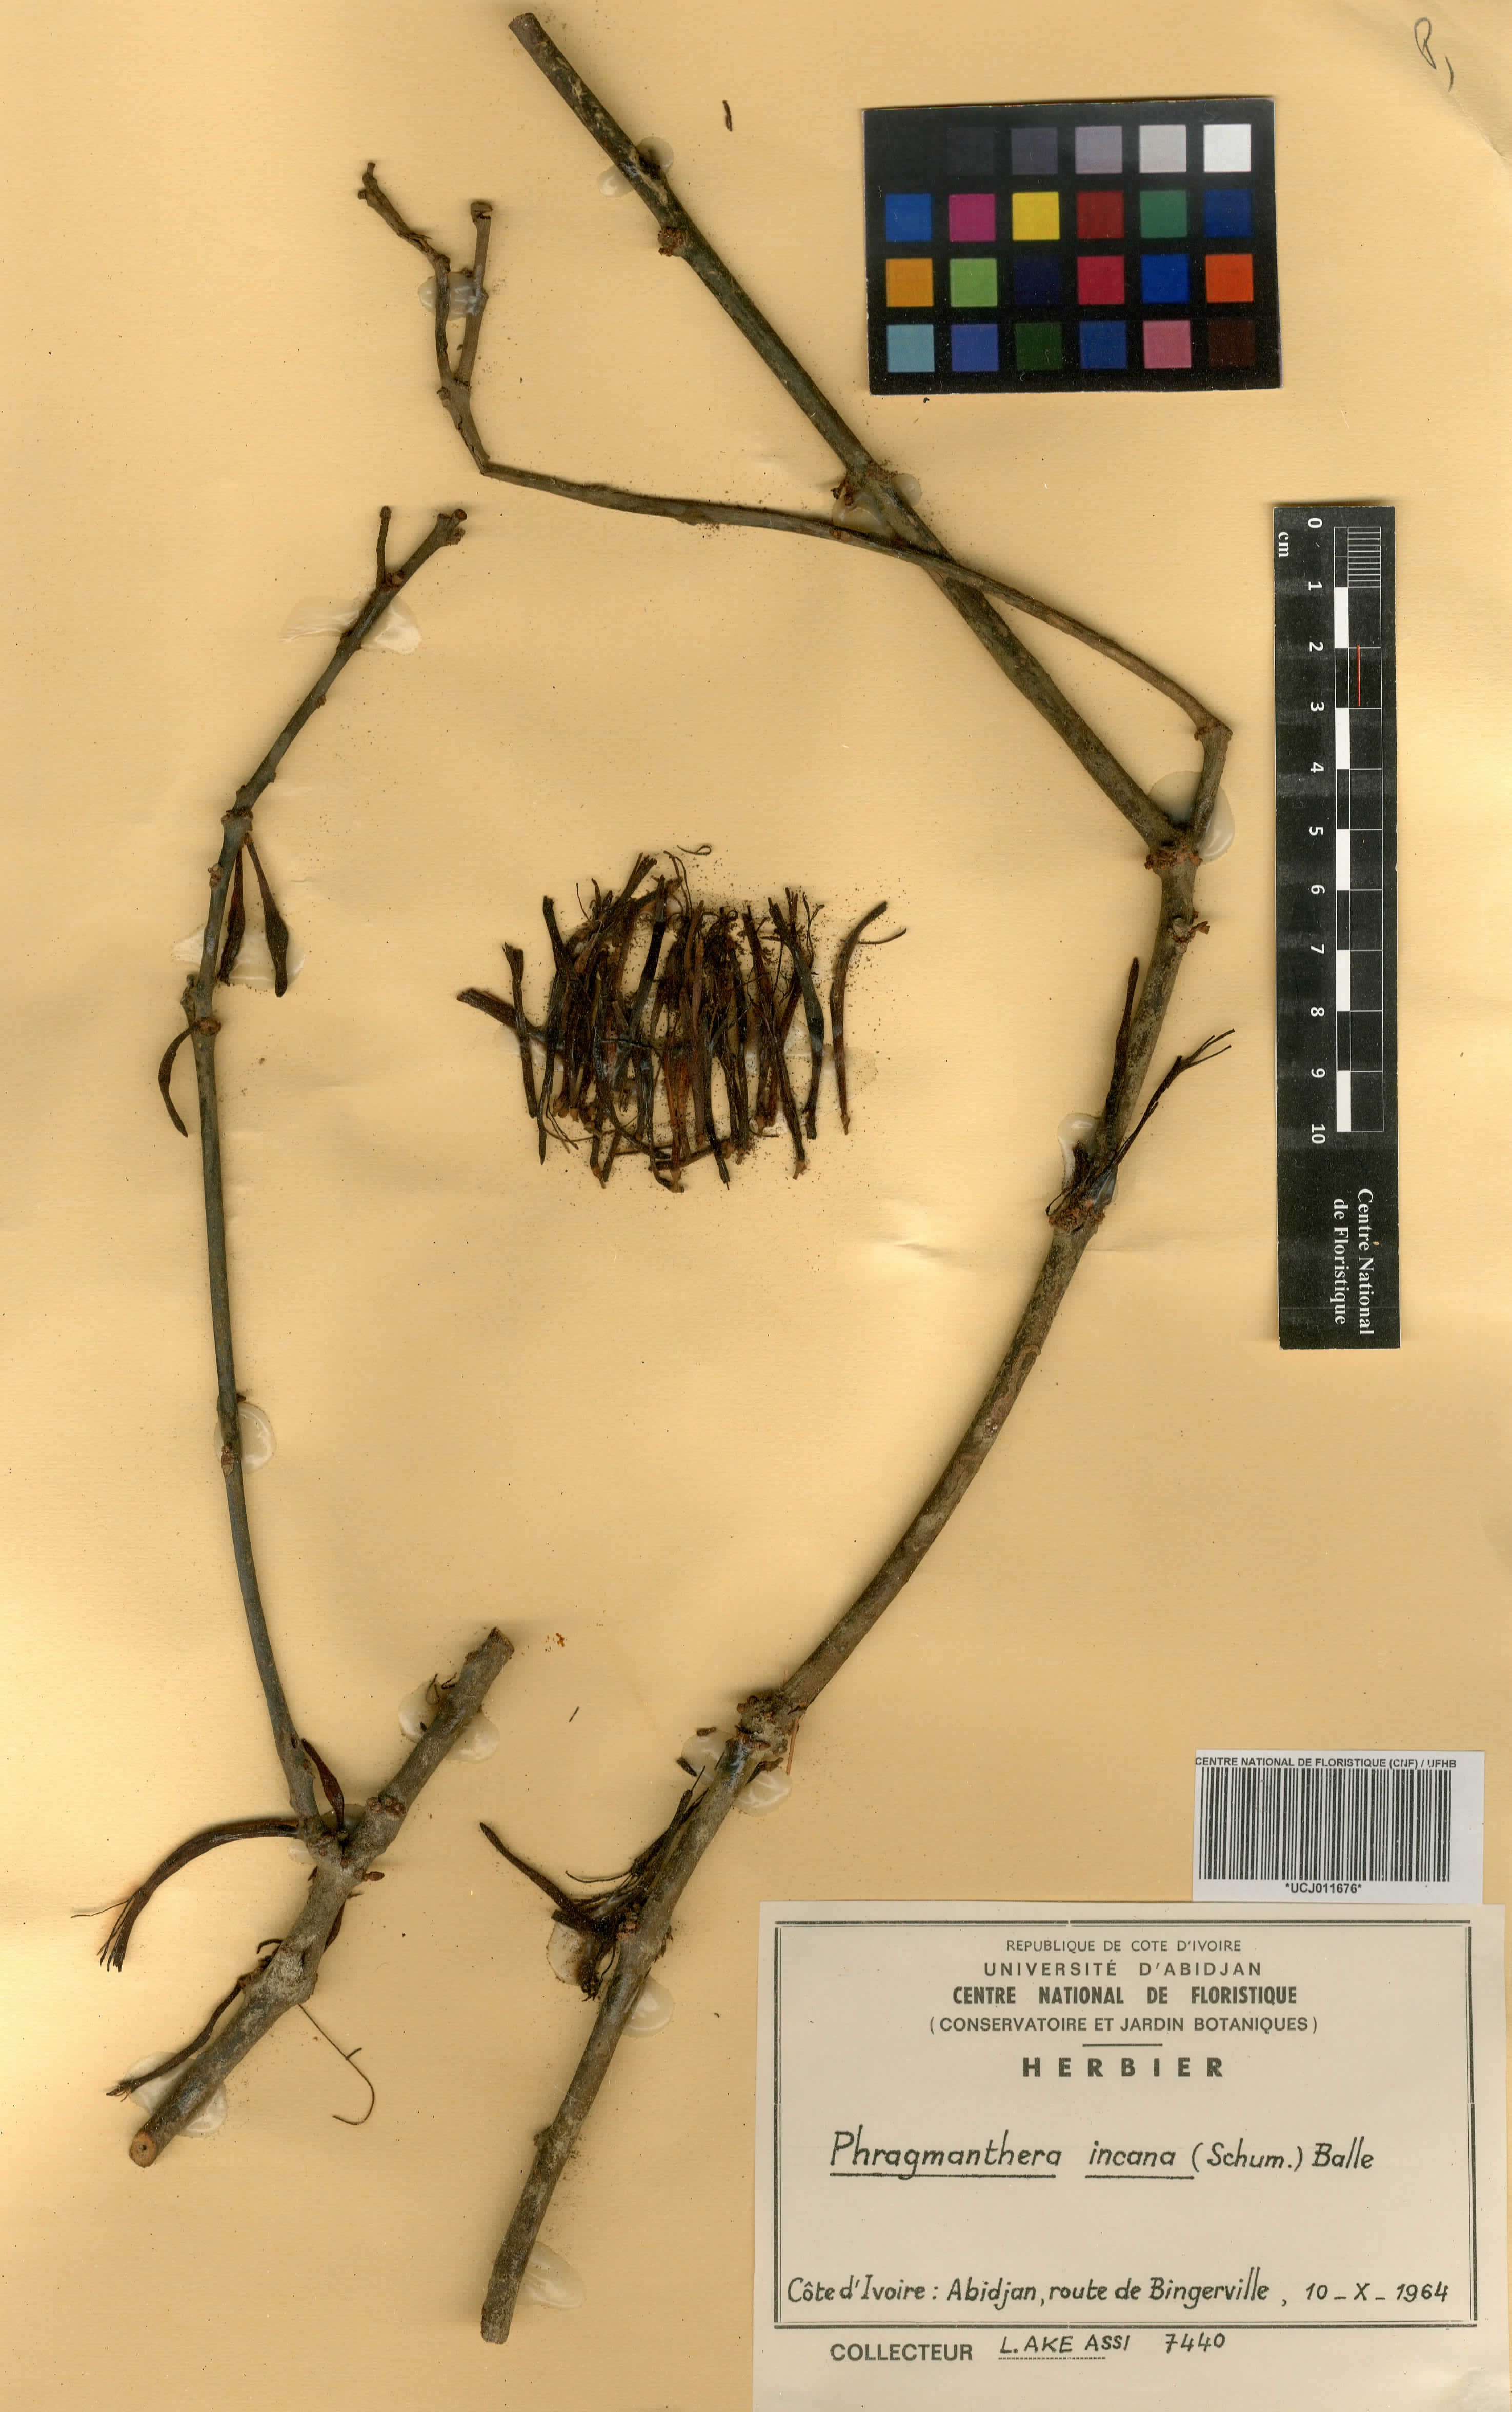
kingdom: Plantae
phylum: Tracheophyta
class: Magnoliopsida
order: Santalales
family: Loranthaceae
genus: Phragmanthera
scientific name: Phragmanthera capitata
